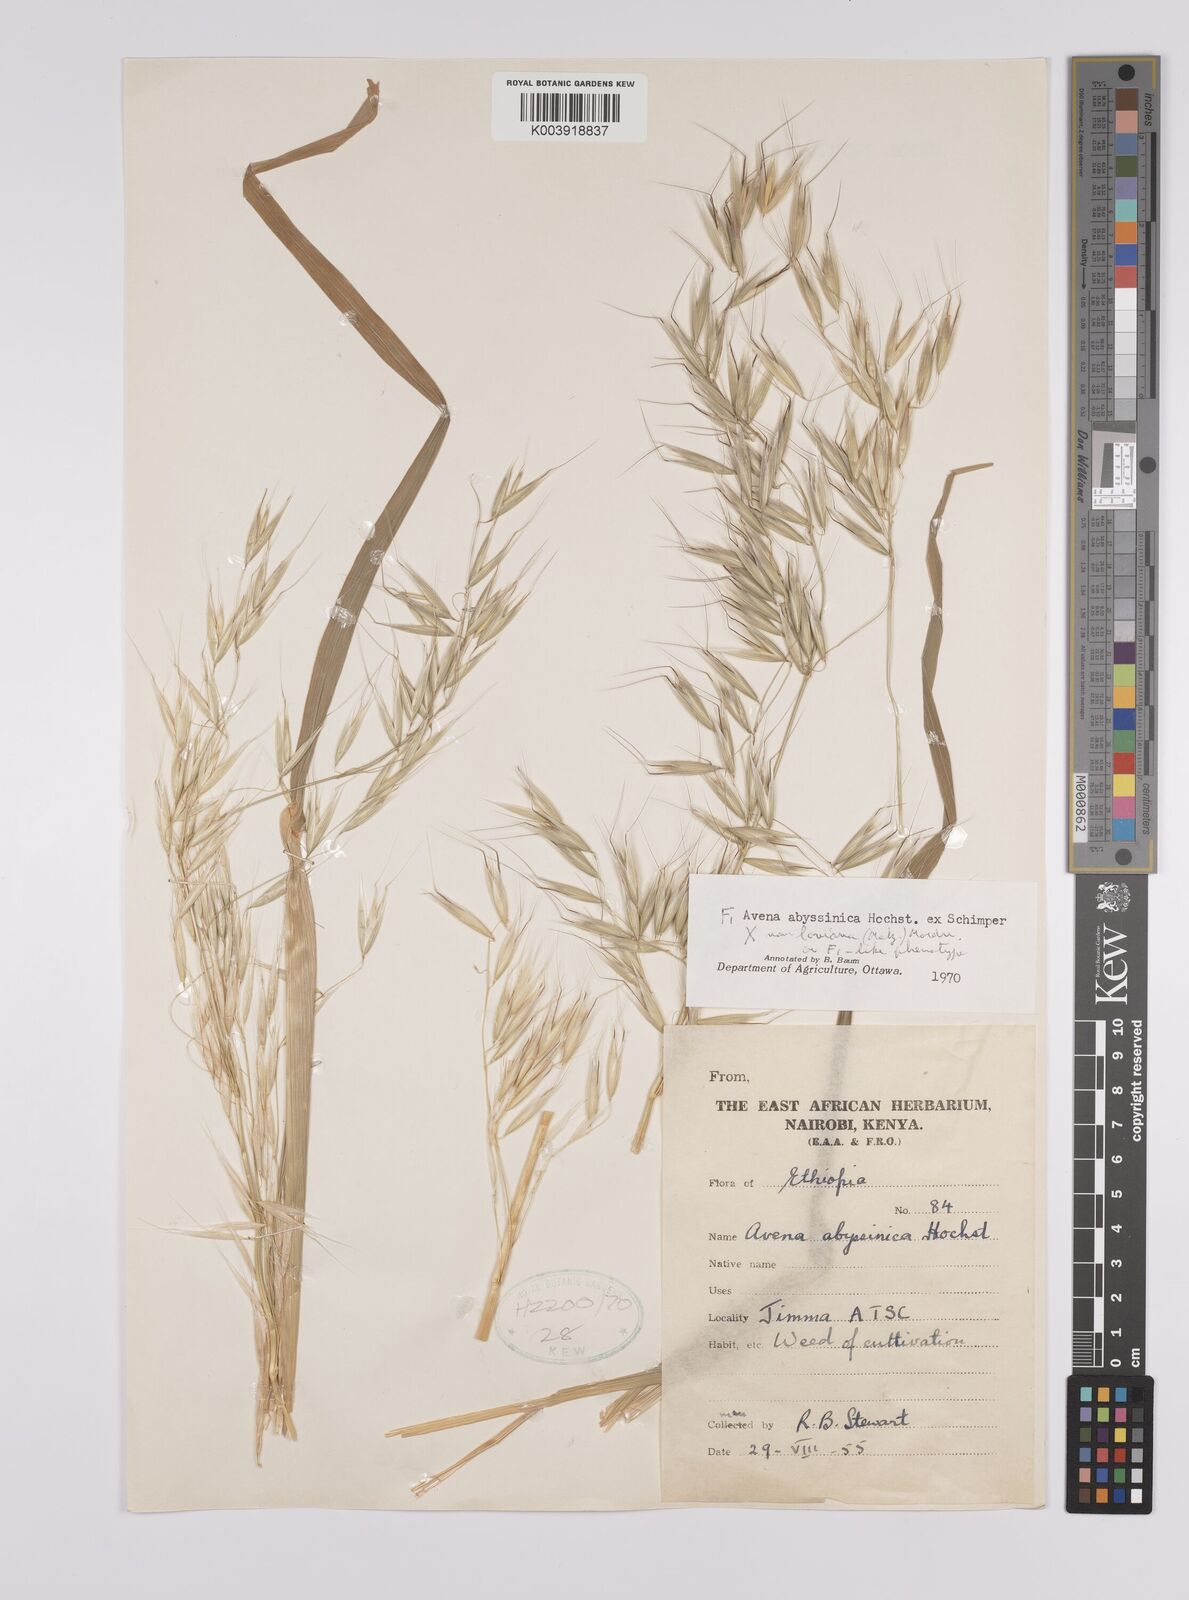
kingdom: Plantae
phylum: Tracheophyta
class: Liliopsida
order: Poales
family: Poaceae
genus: Avena
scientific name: Avena abyssinica
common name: Ethiopian oat
